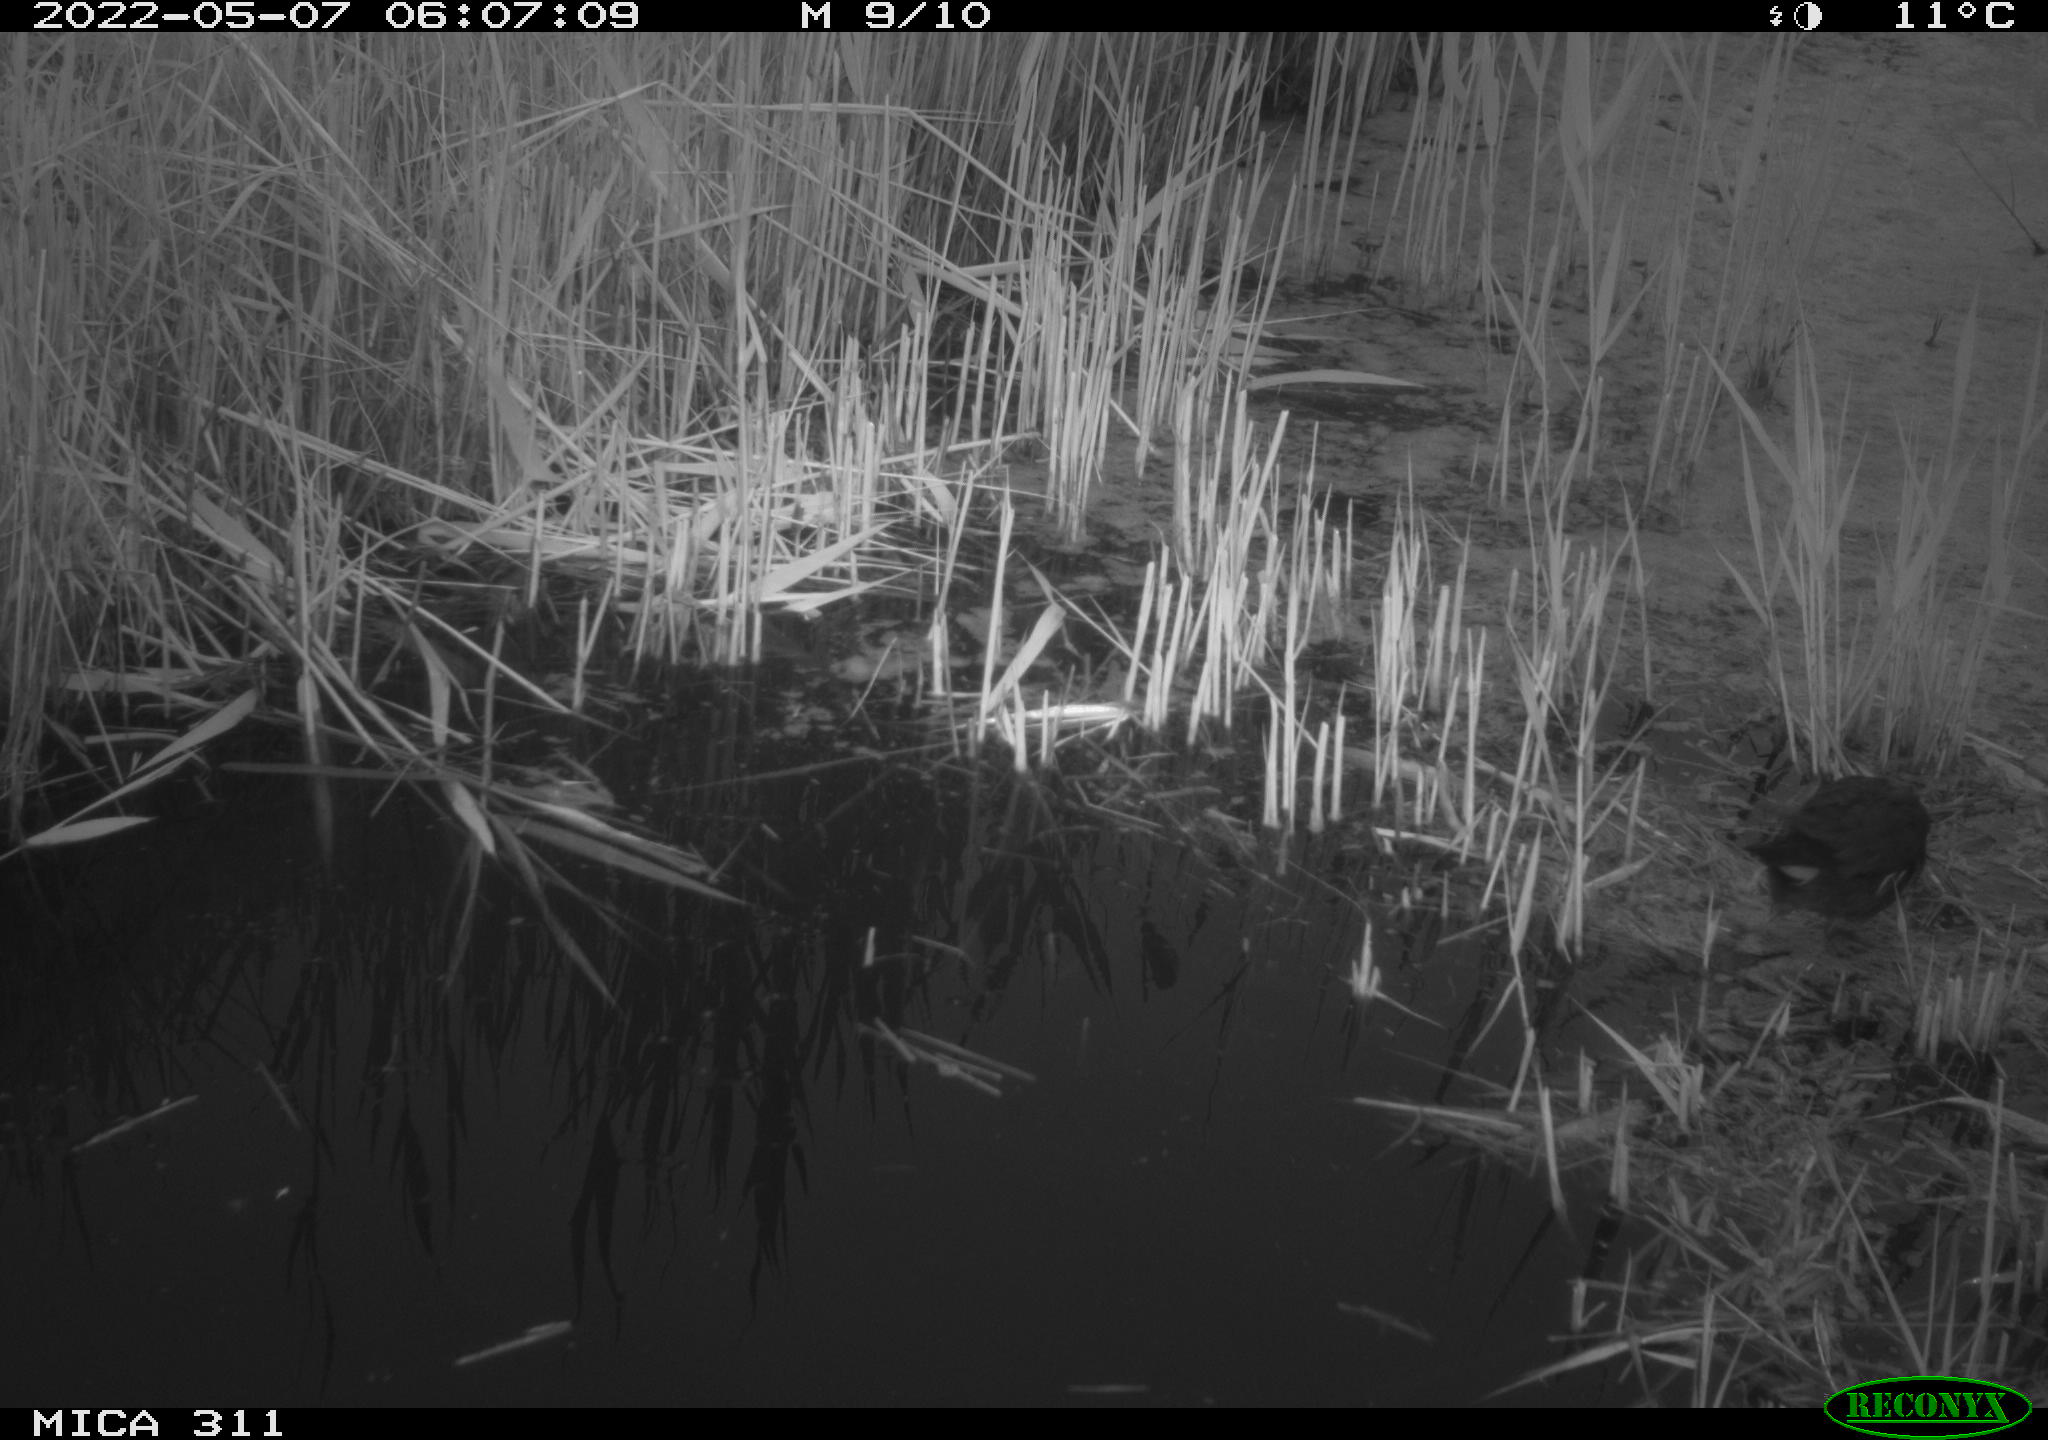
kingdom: Animalia
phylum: Chordata
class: Aves
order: Gruiformes
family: Rallidae
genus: Gallinula
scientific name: Gallinula chloropus
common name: Common moorhen
